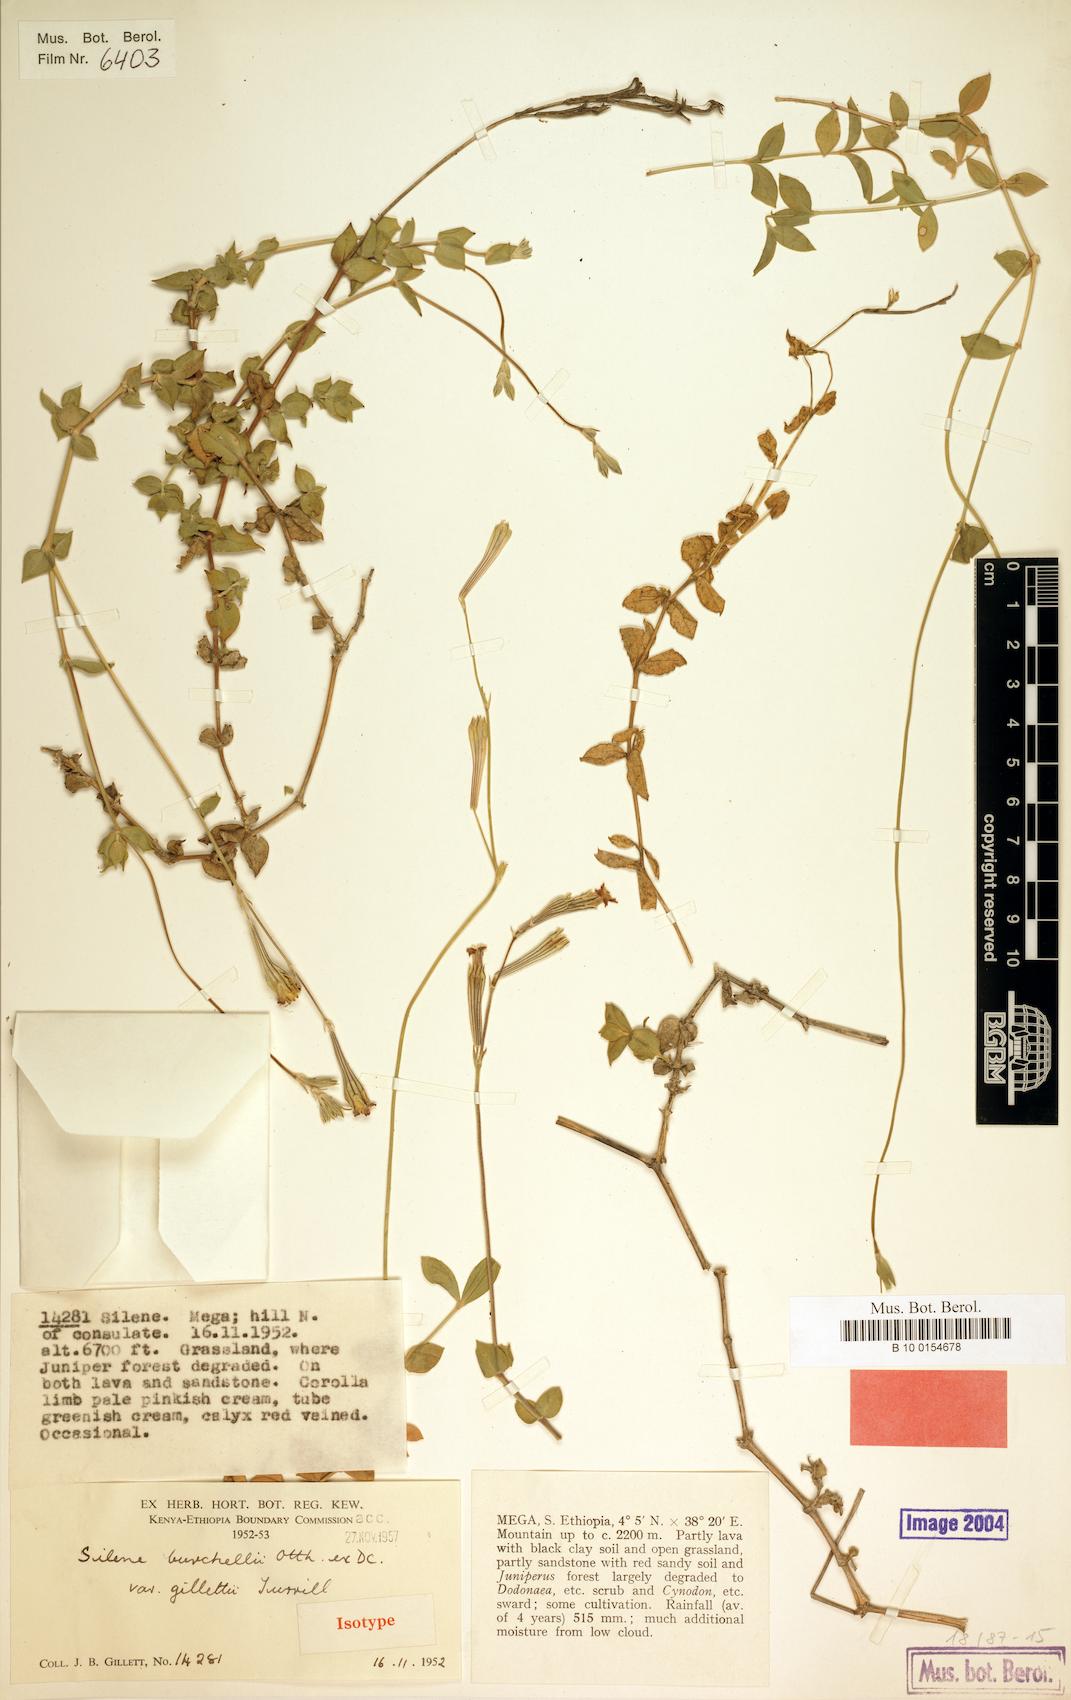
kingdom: Plantae
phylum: Tracheophyta
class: Magnoliopsida
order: Caryophyllales
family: Caryophyllaceae
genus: Silene
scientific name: Silene gillettii
